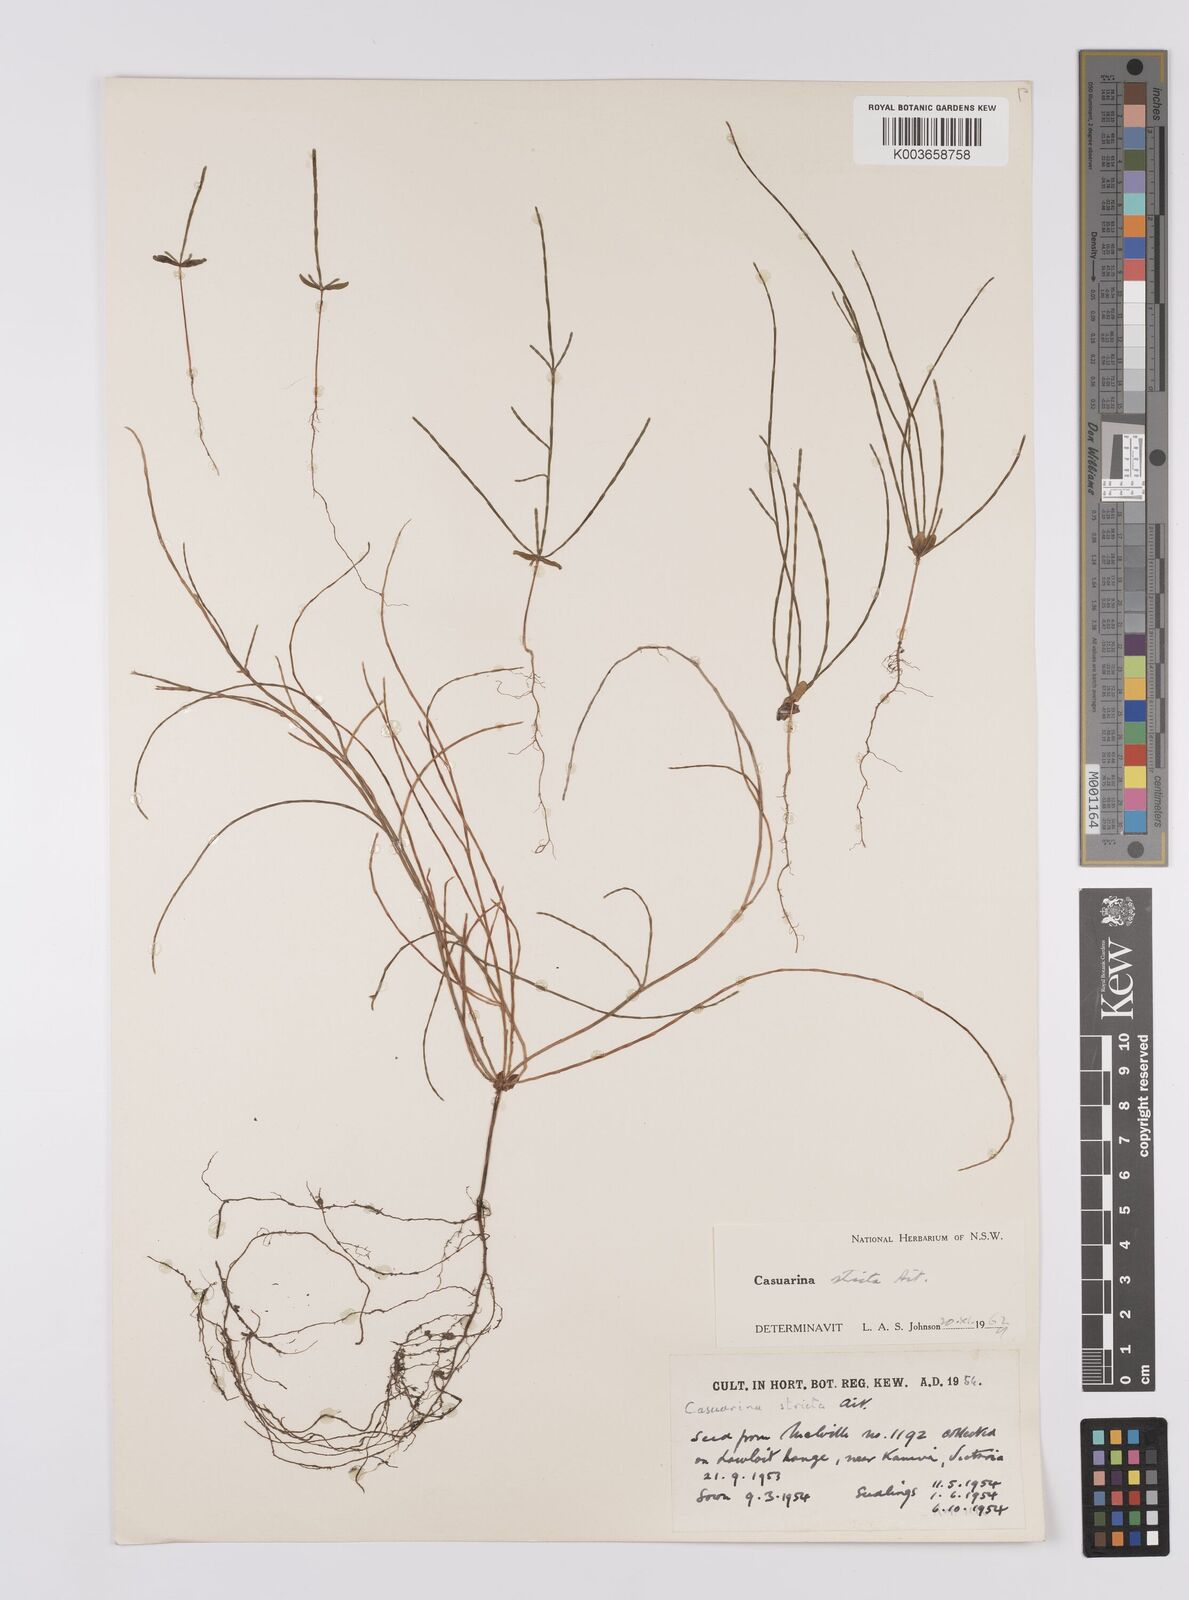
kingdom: Plantae
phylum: Tracheophyta
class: Magnoliopsida
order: Fagales
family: Casuarinaceae
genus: Allocasuarina
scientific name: Allocasuarina verticillata
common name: Drooping she-oak
